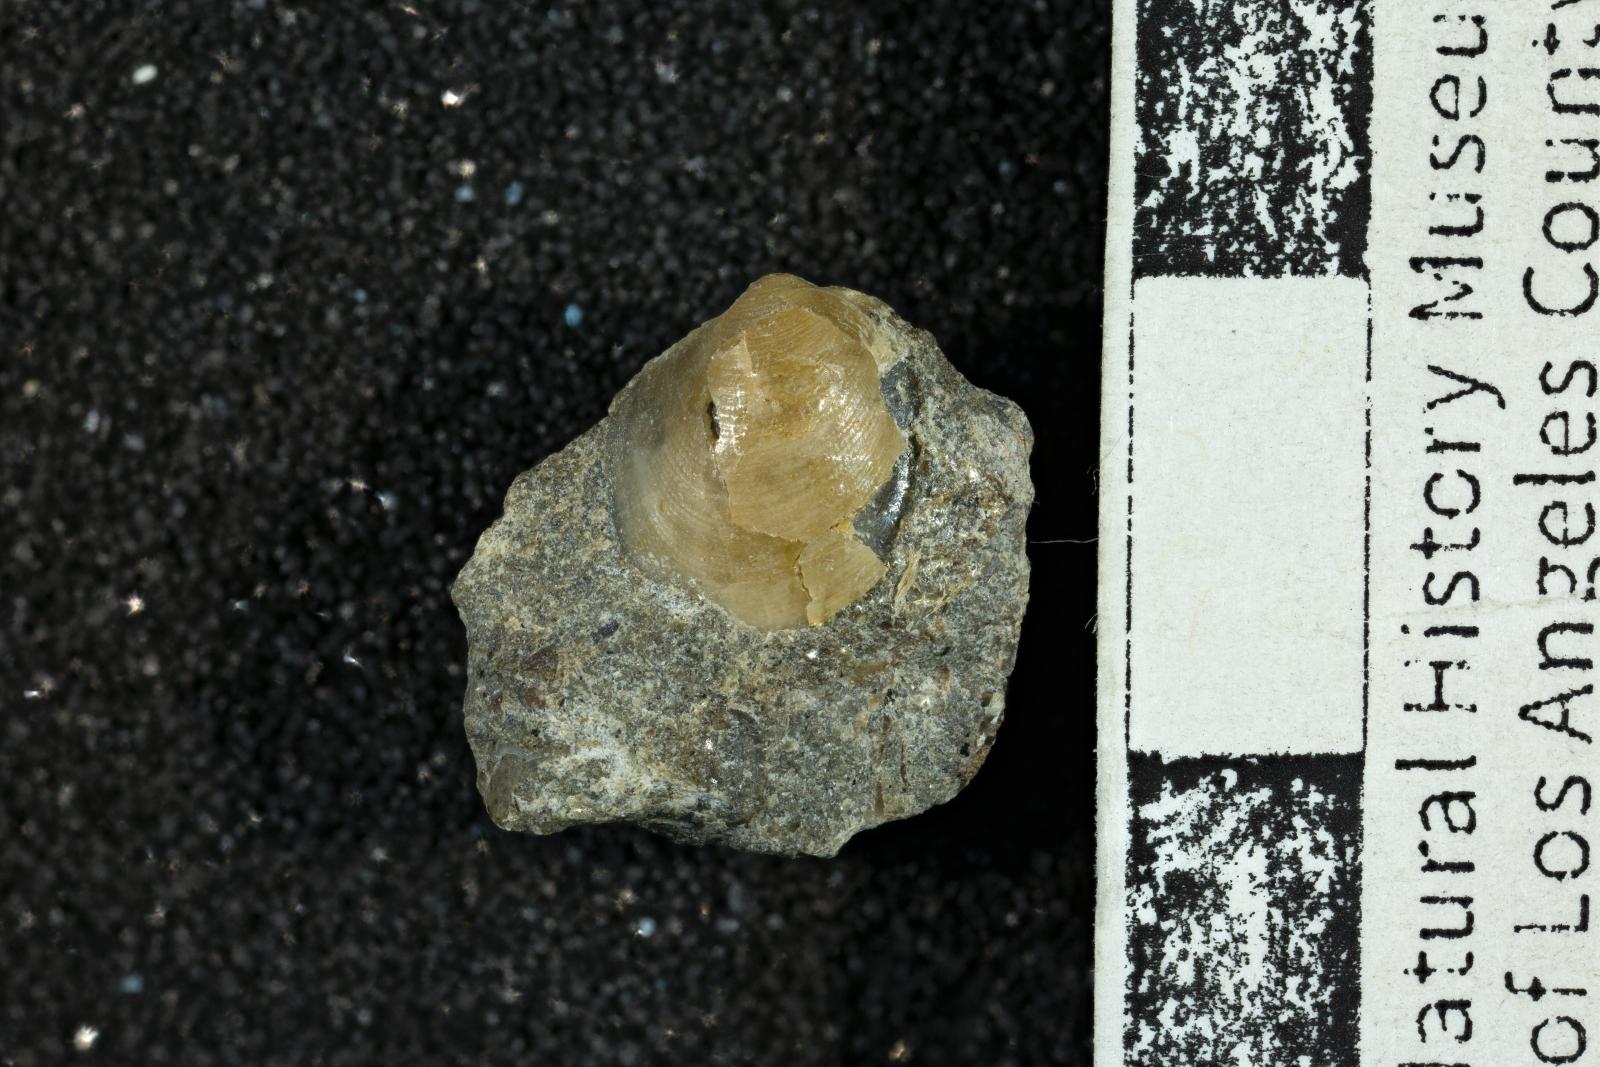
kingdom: Animalia
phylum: Mollusca
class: Bivalvia
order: Arcida
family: Limopsidae
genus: Limopsis
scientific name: Limopsis silveradoensis
